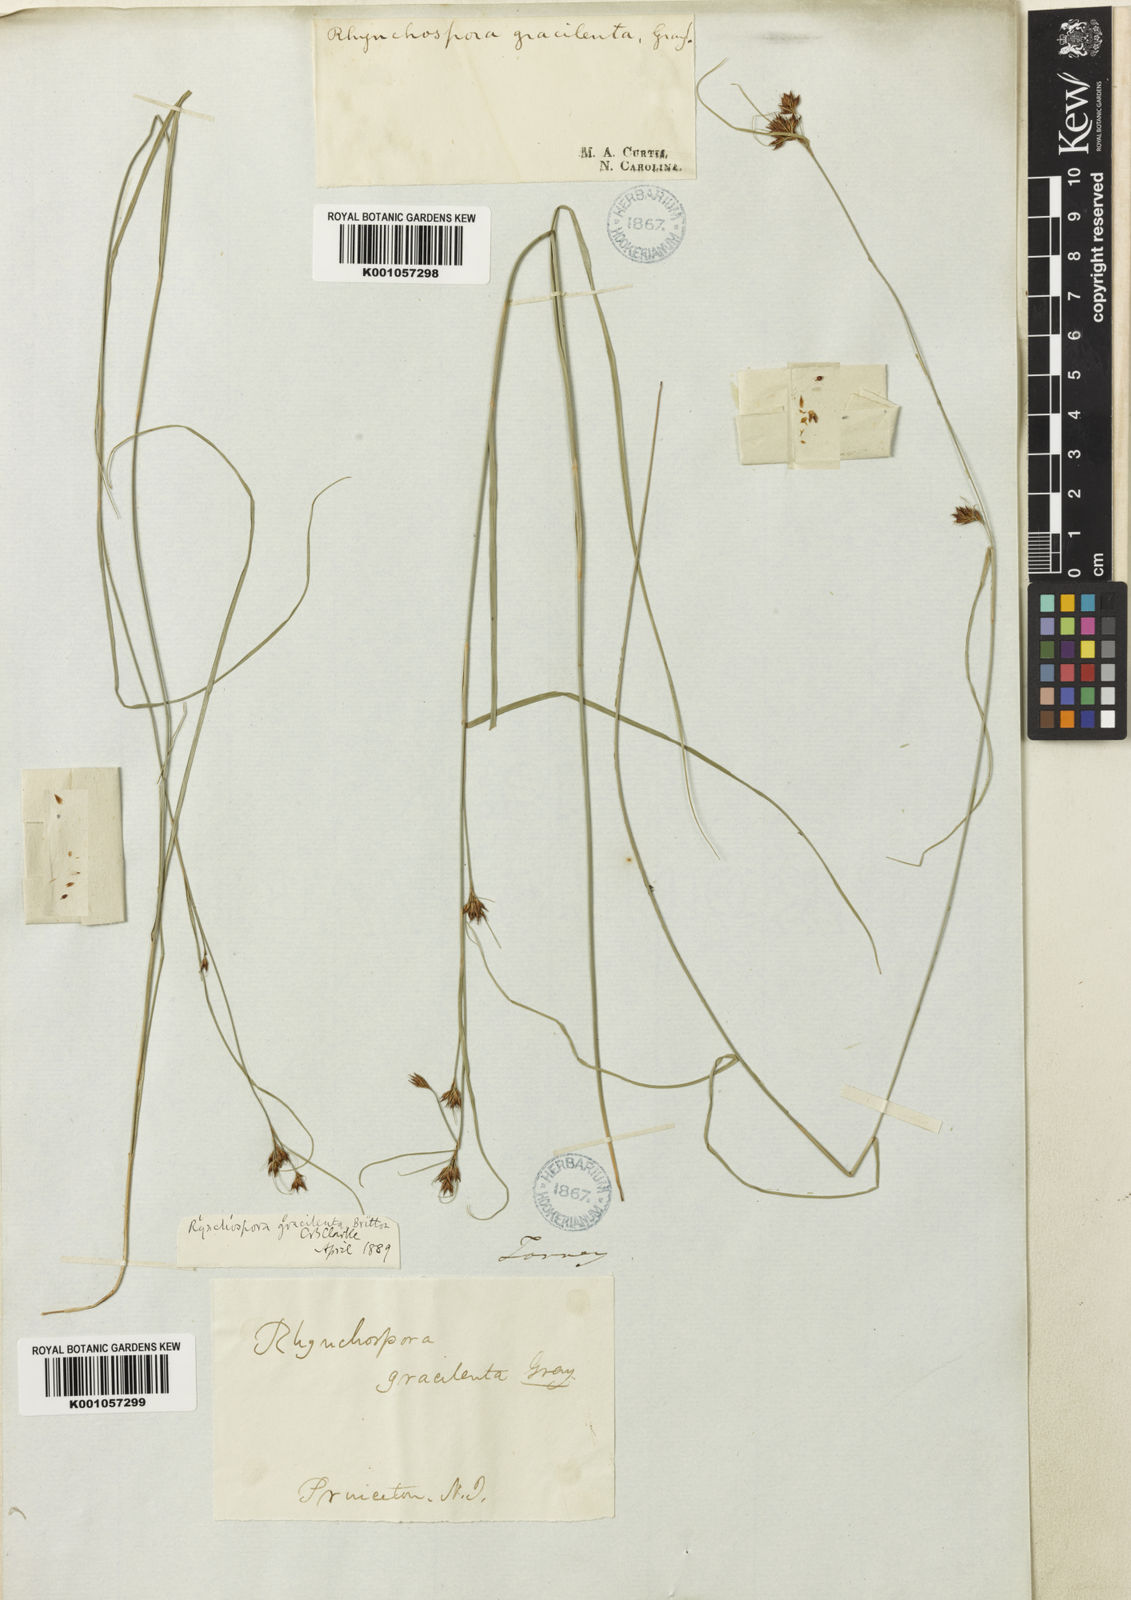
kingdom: Plantae
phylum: Tracheophyta
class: Liliopsida
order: Poales
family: Cyperaceae
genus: Rhynchospora
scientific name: Rhynchospora gracilenta
